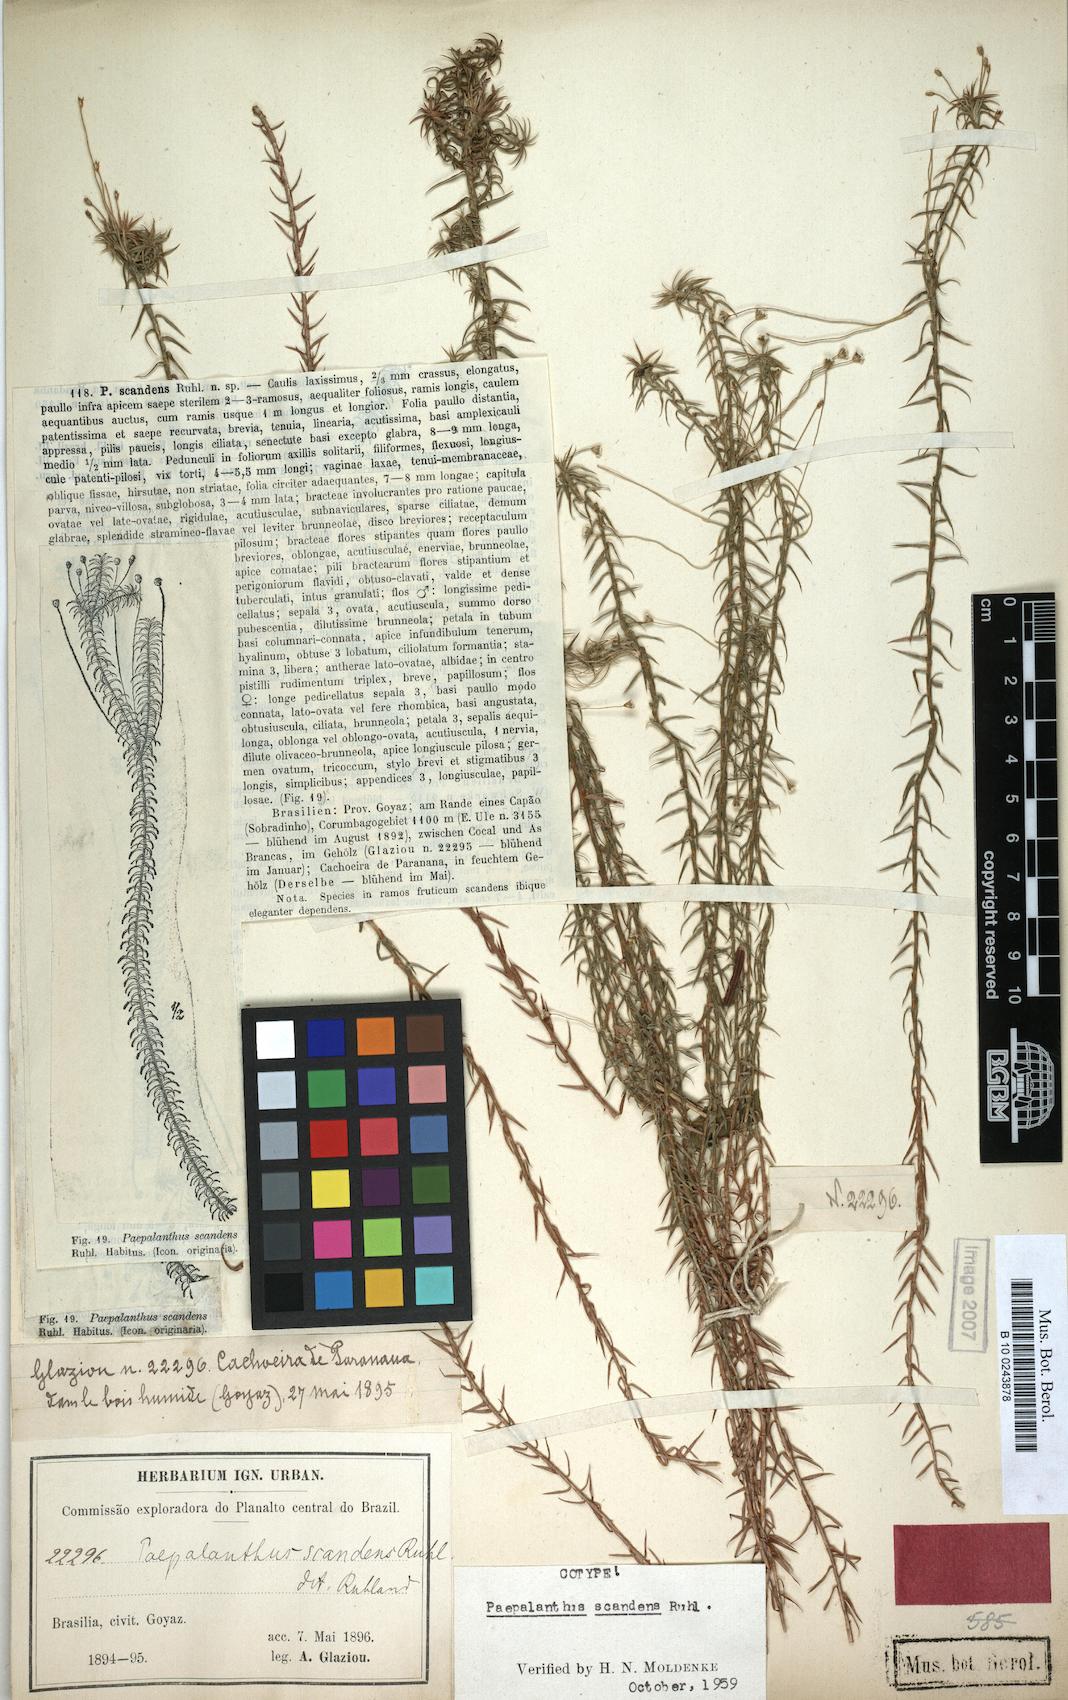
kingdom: Plantae
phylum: Tracheophyta
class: Liliopsida
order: Poales
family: Eriocaulaceae
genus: Paepalanthus
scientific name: Paepalanthus scandens
